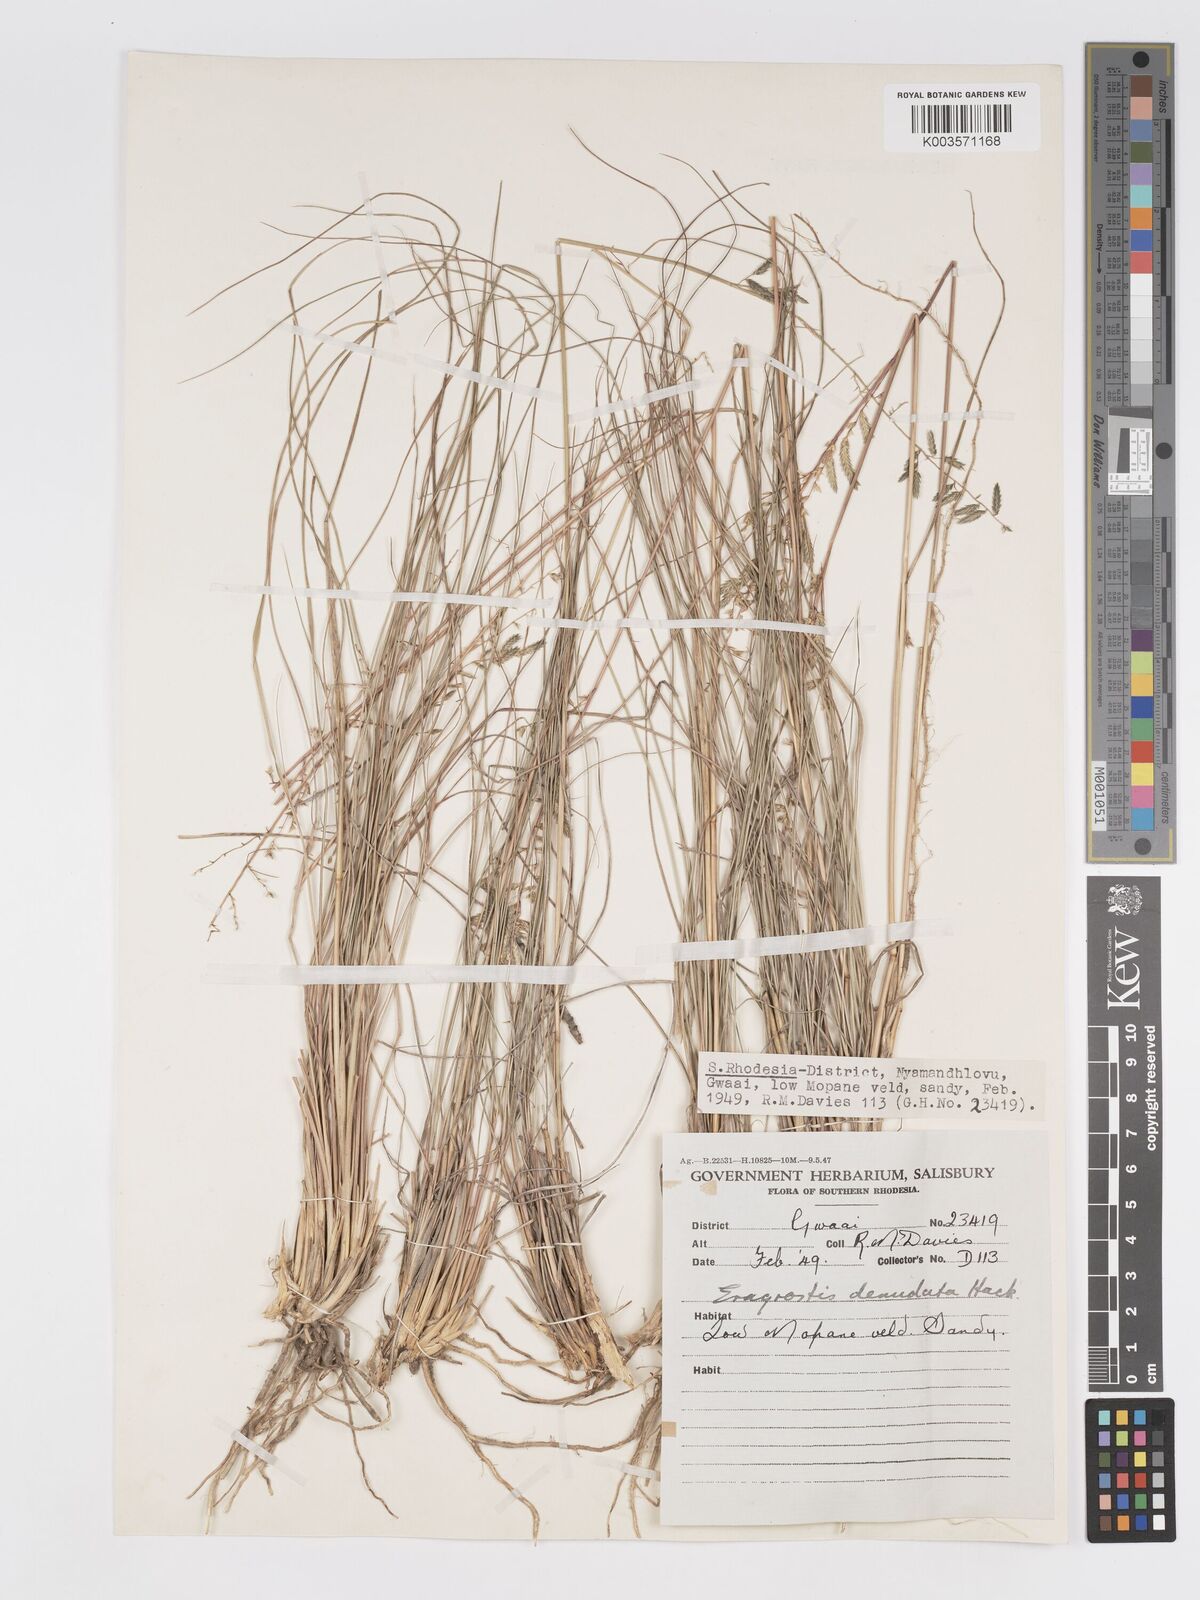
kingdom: Plantae
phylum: Tracheophyta
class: Liliopsida
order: Poales
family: Poaceae
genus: Eragrostis
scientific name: Eragrostis nindensis
